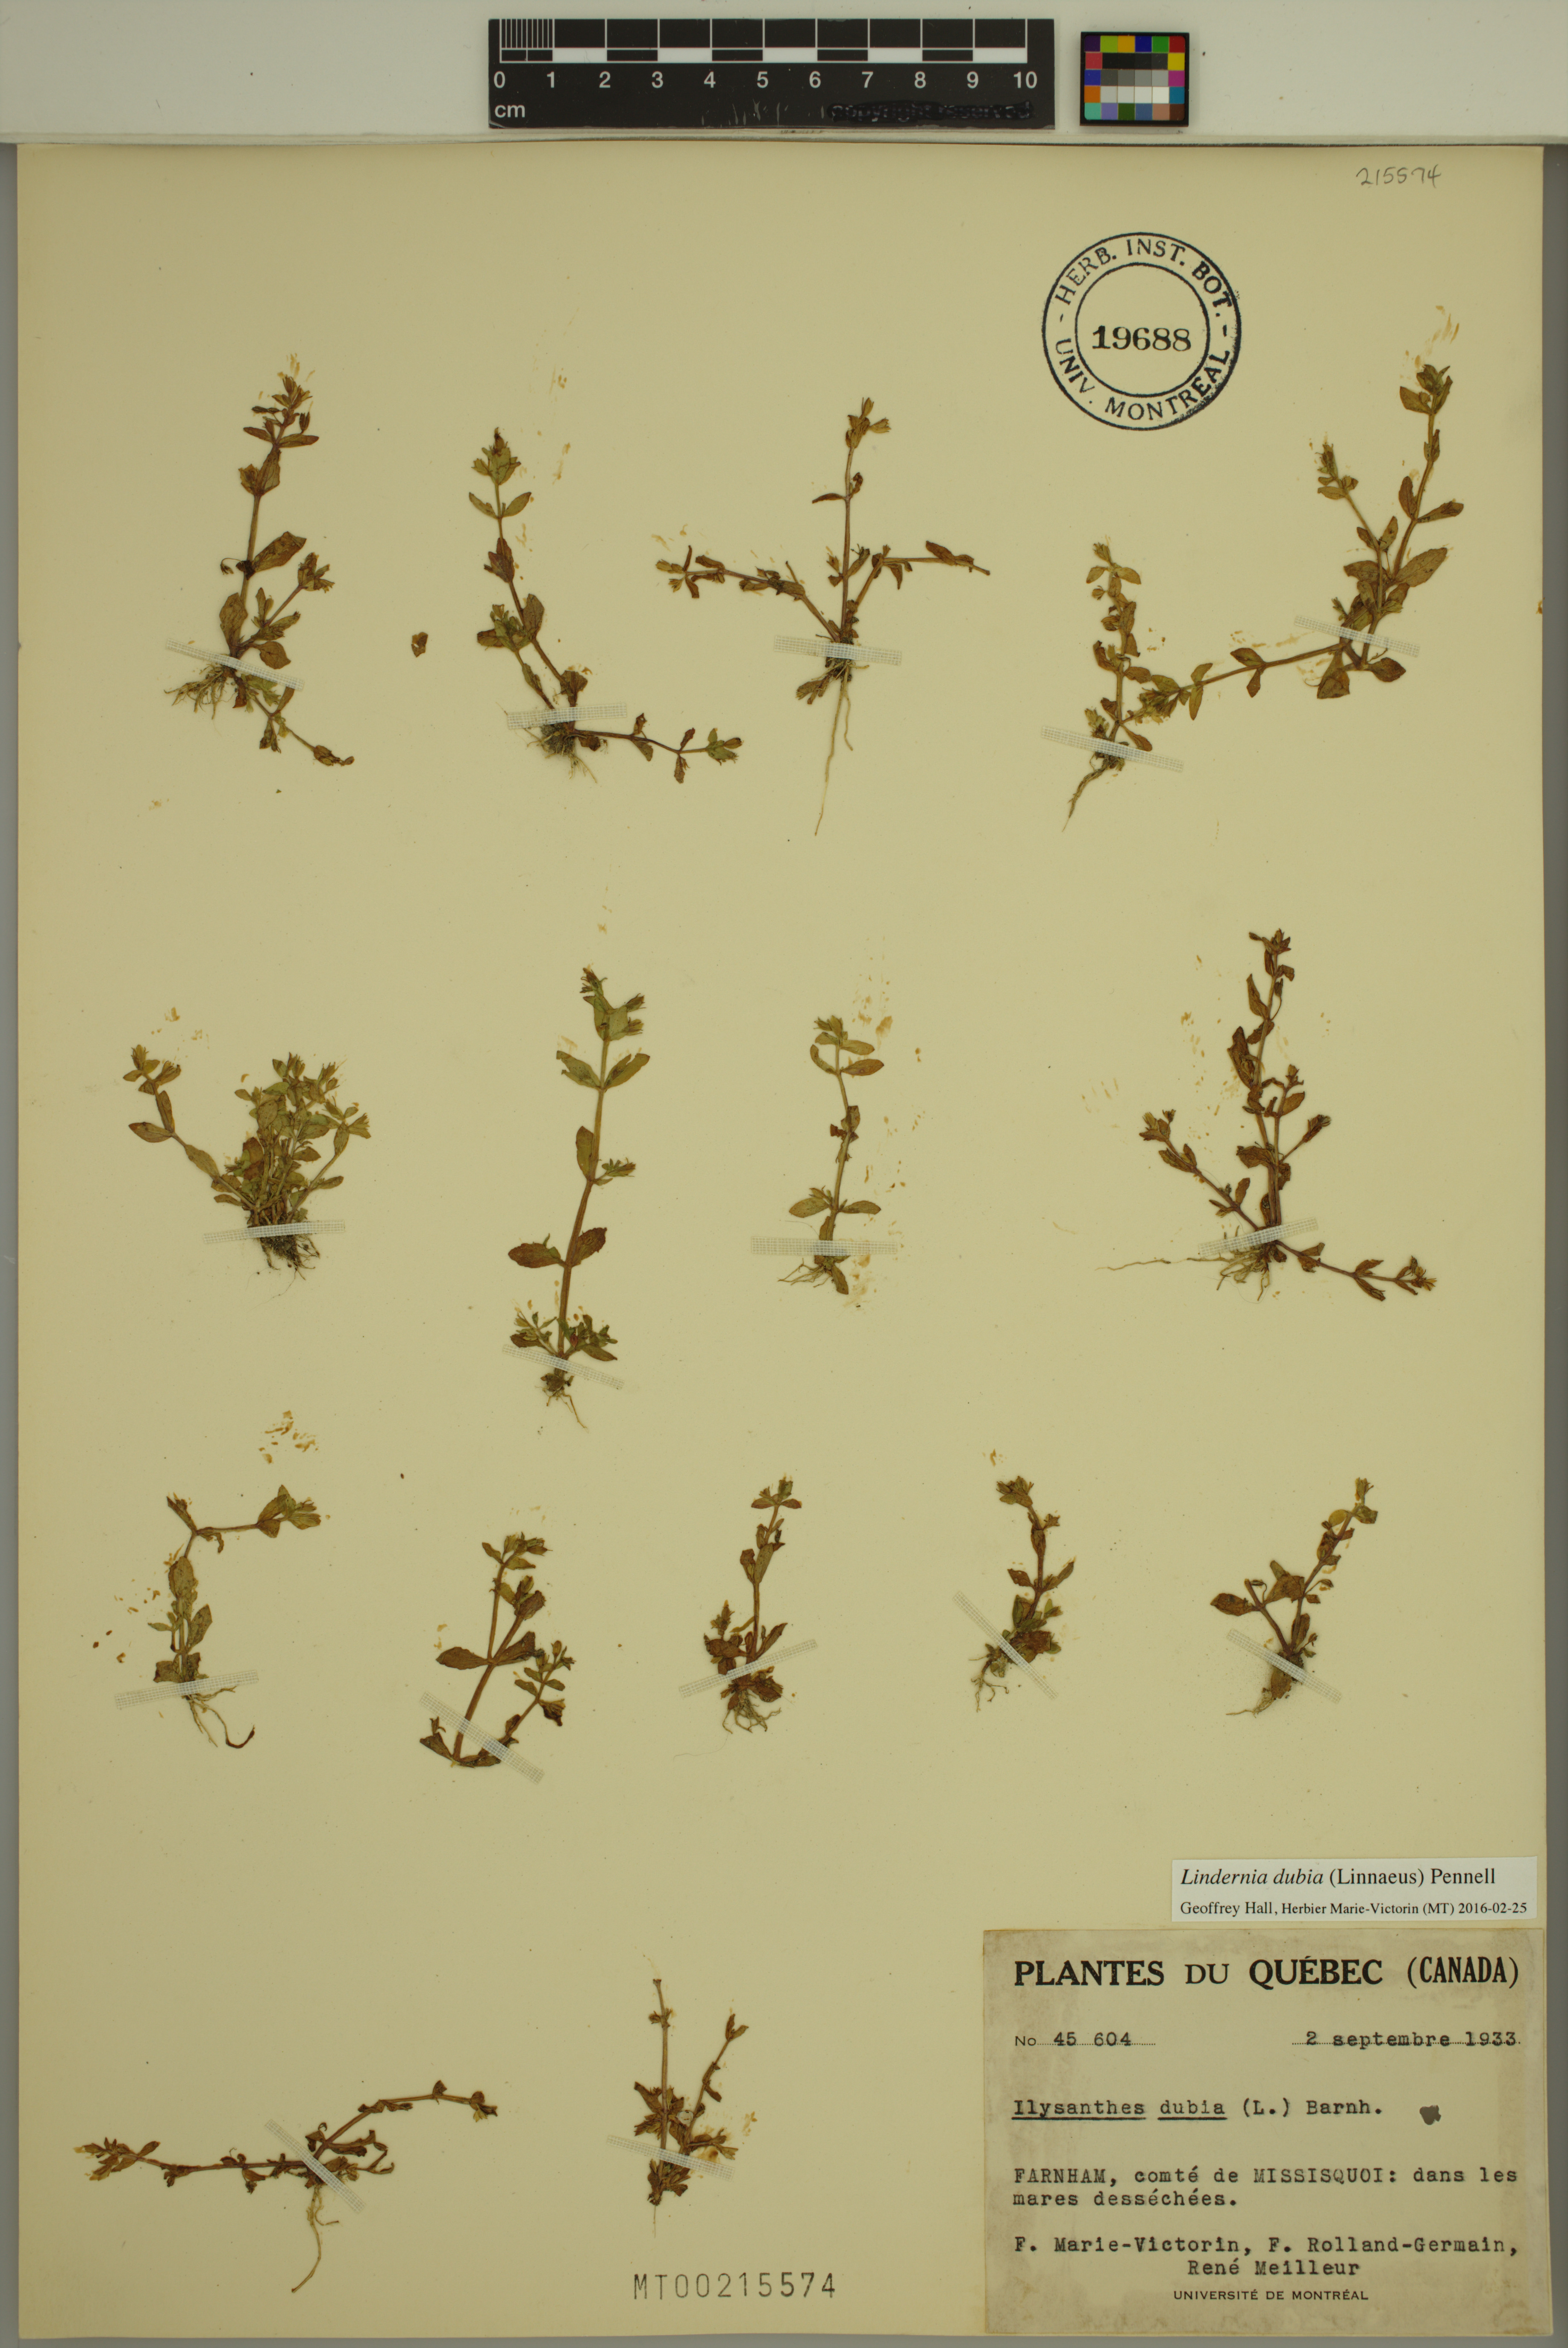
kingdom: Plantae
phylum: Tracheophyta
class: Magnoliopsida
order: Lamiales
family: Linderniaceae
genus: Lindernia
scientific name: Lindernia dubia
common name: Annual false pimpernel
